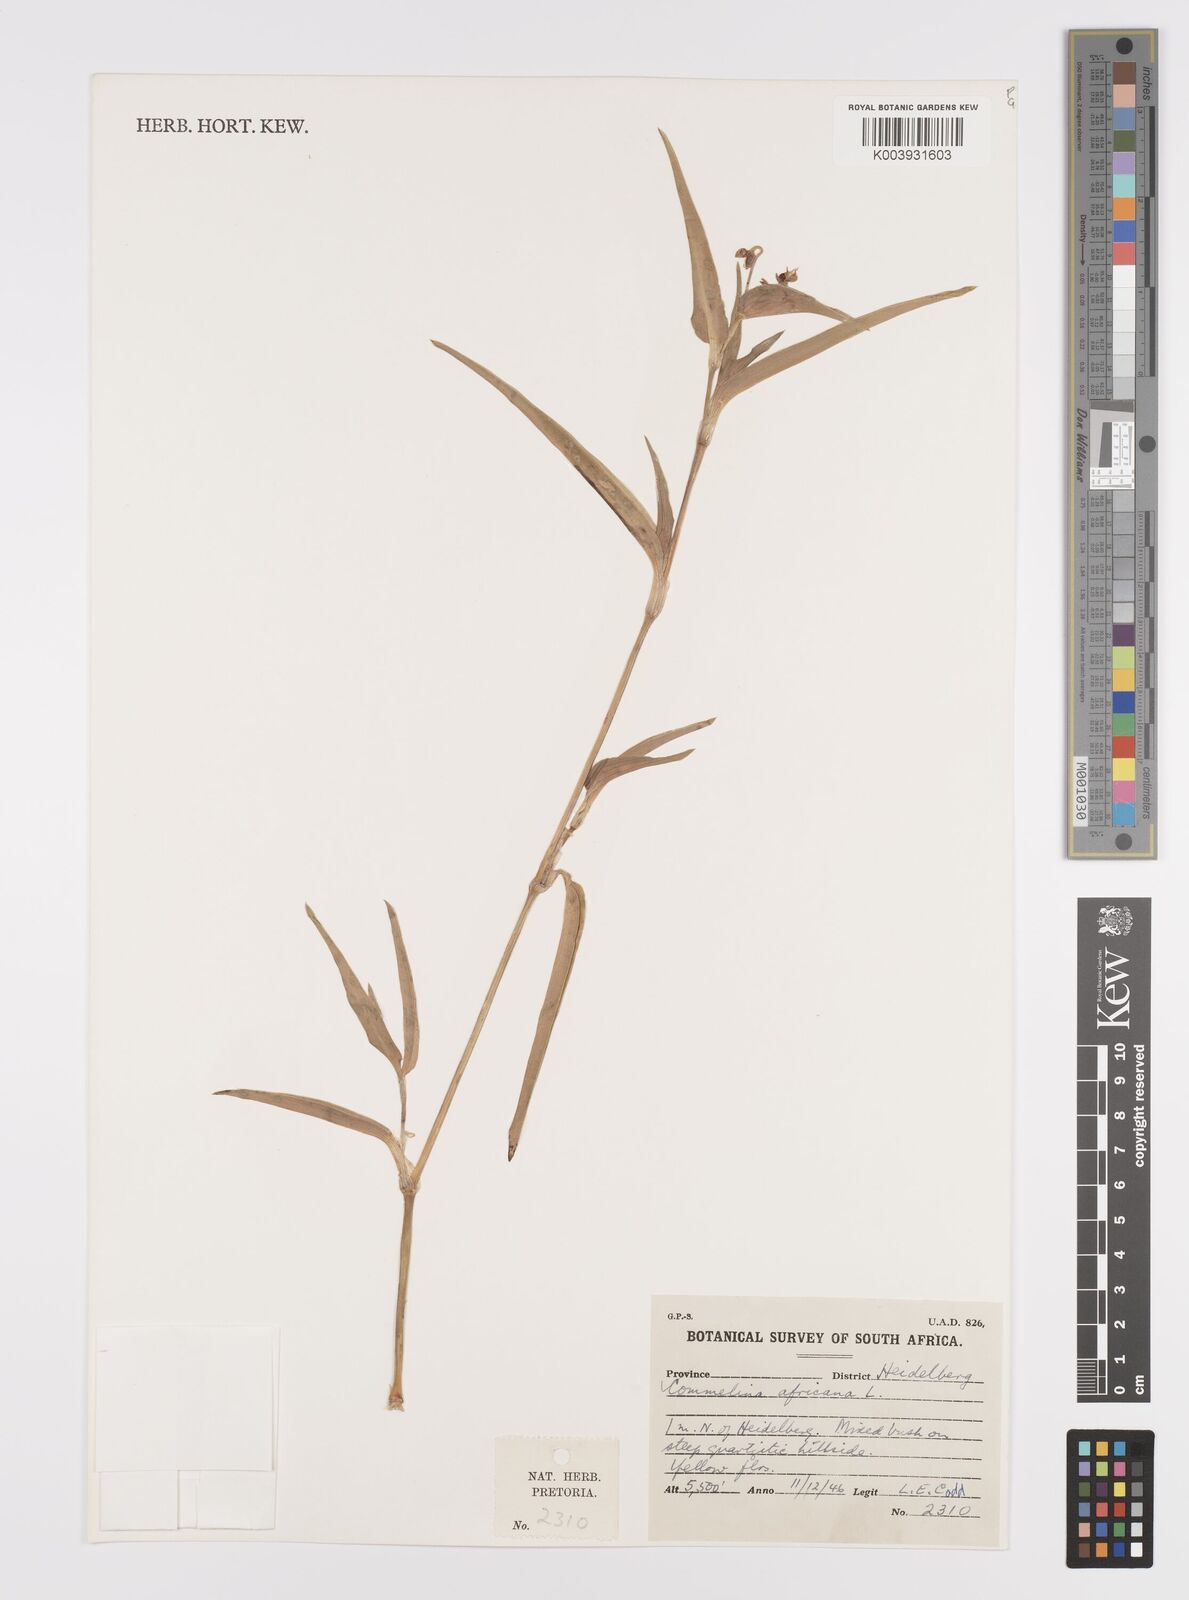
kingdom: Plantae
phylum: Tracheophyta
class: Liliopsida
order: Commelinales
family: Commelinaceae
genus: Commelina
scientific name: Commelina africana
